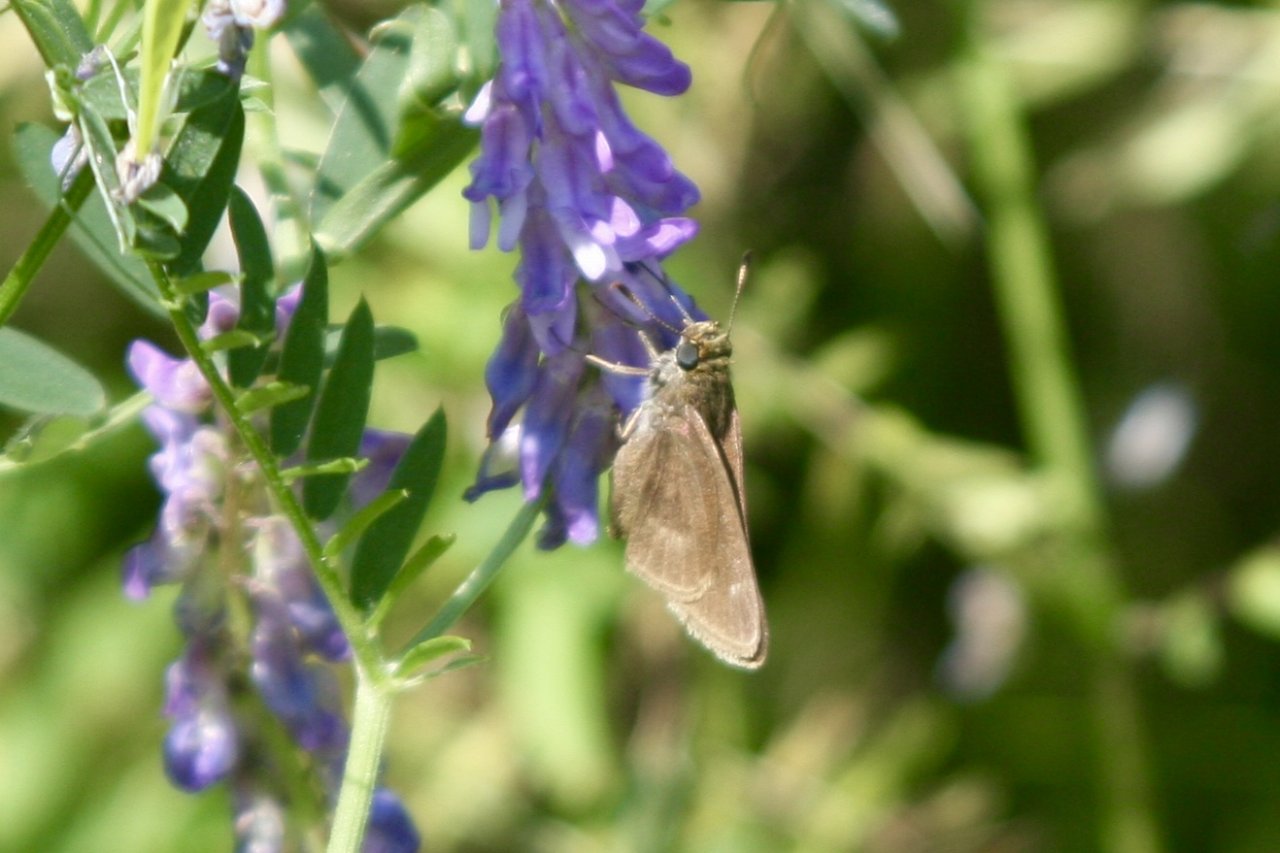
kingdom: Animalia
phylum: Arthropoda
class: Insecta
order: Lepidoptera
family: Hesperiidae
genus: Euphyes
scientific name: Euphyes vestris
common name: Dun Skipper
